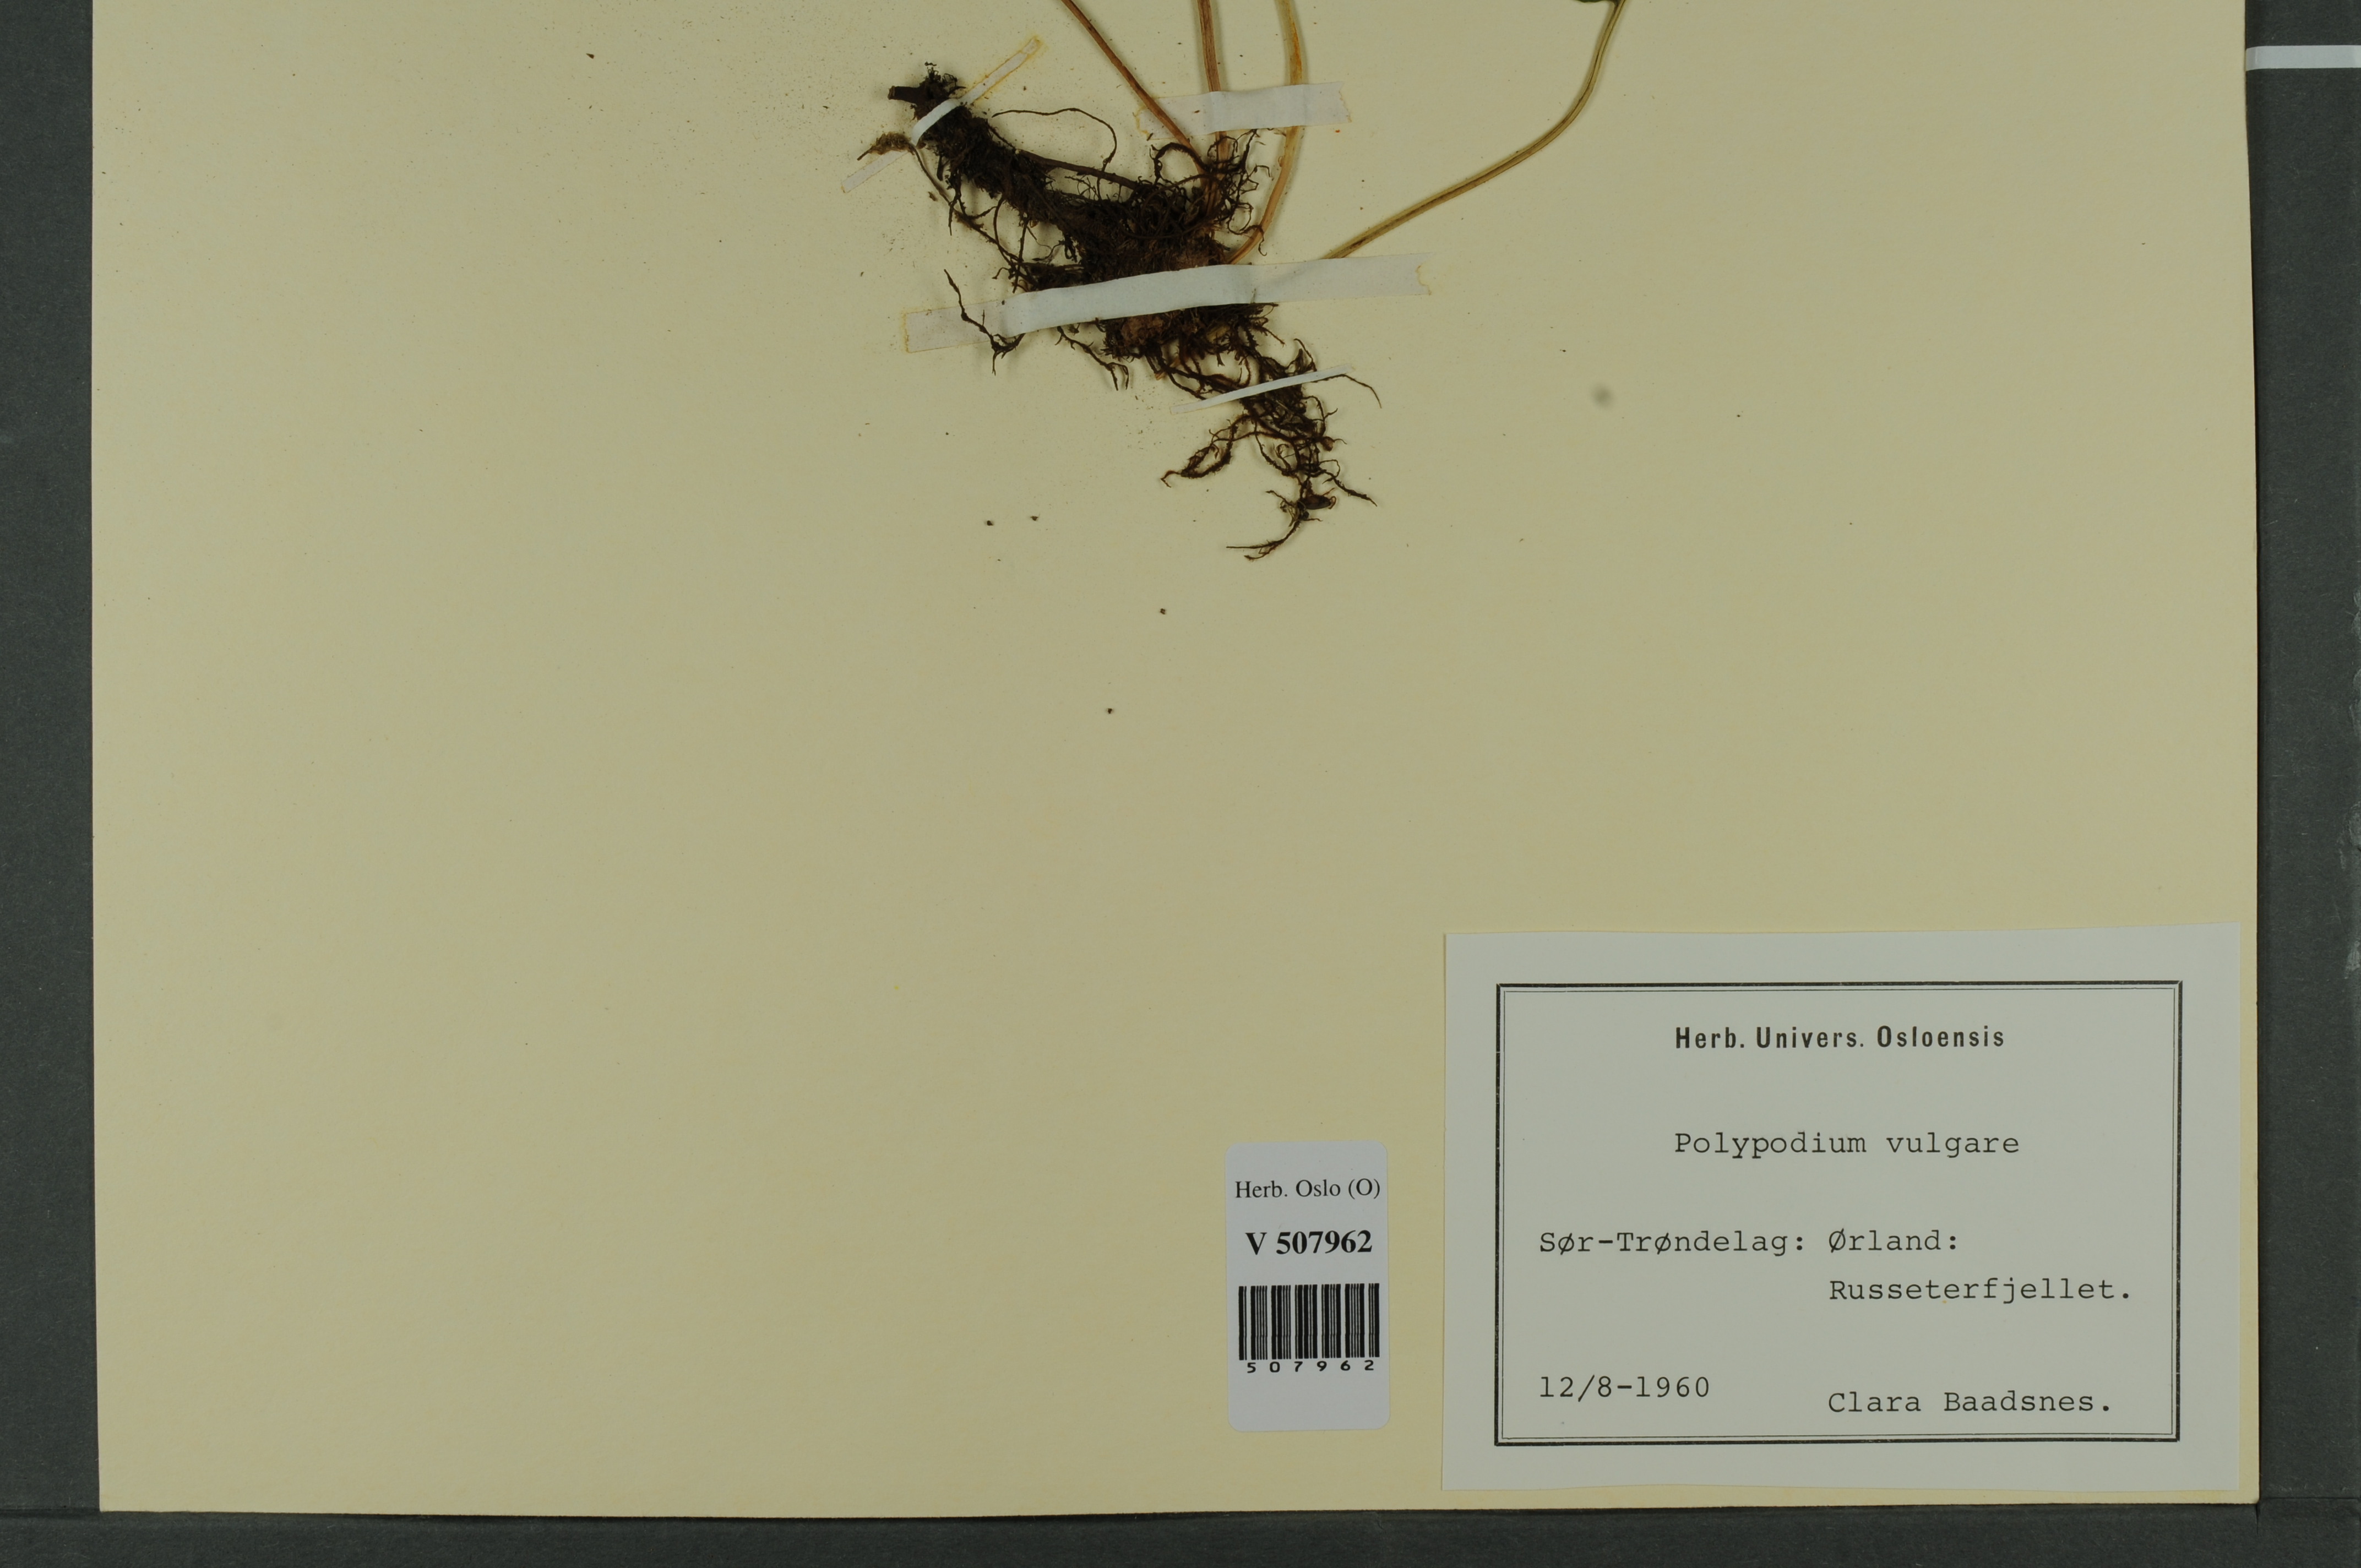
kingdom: Plantae
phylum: Tracheophyta
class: Polypodiopsida
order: Polypodiales
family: Polypodiaceae
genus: Polypodium
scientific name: Polypodium vulgare
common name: Common polypody
